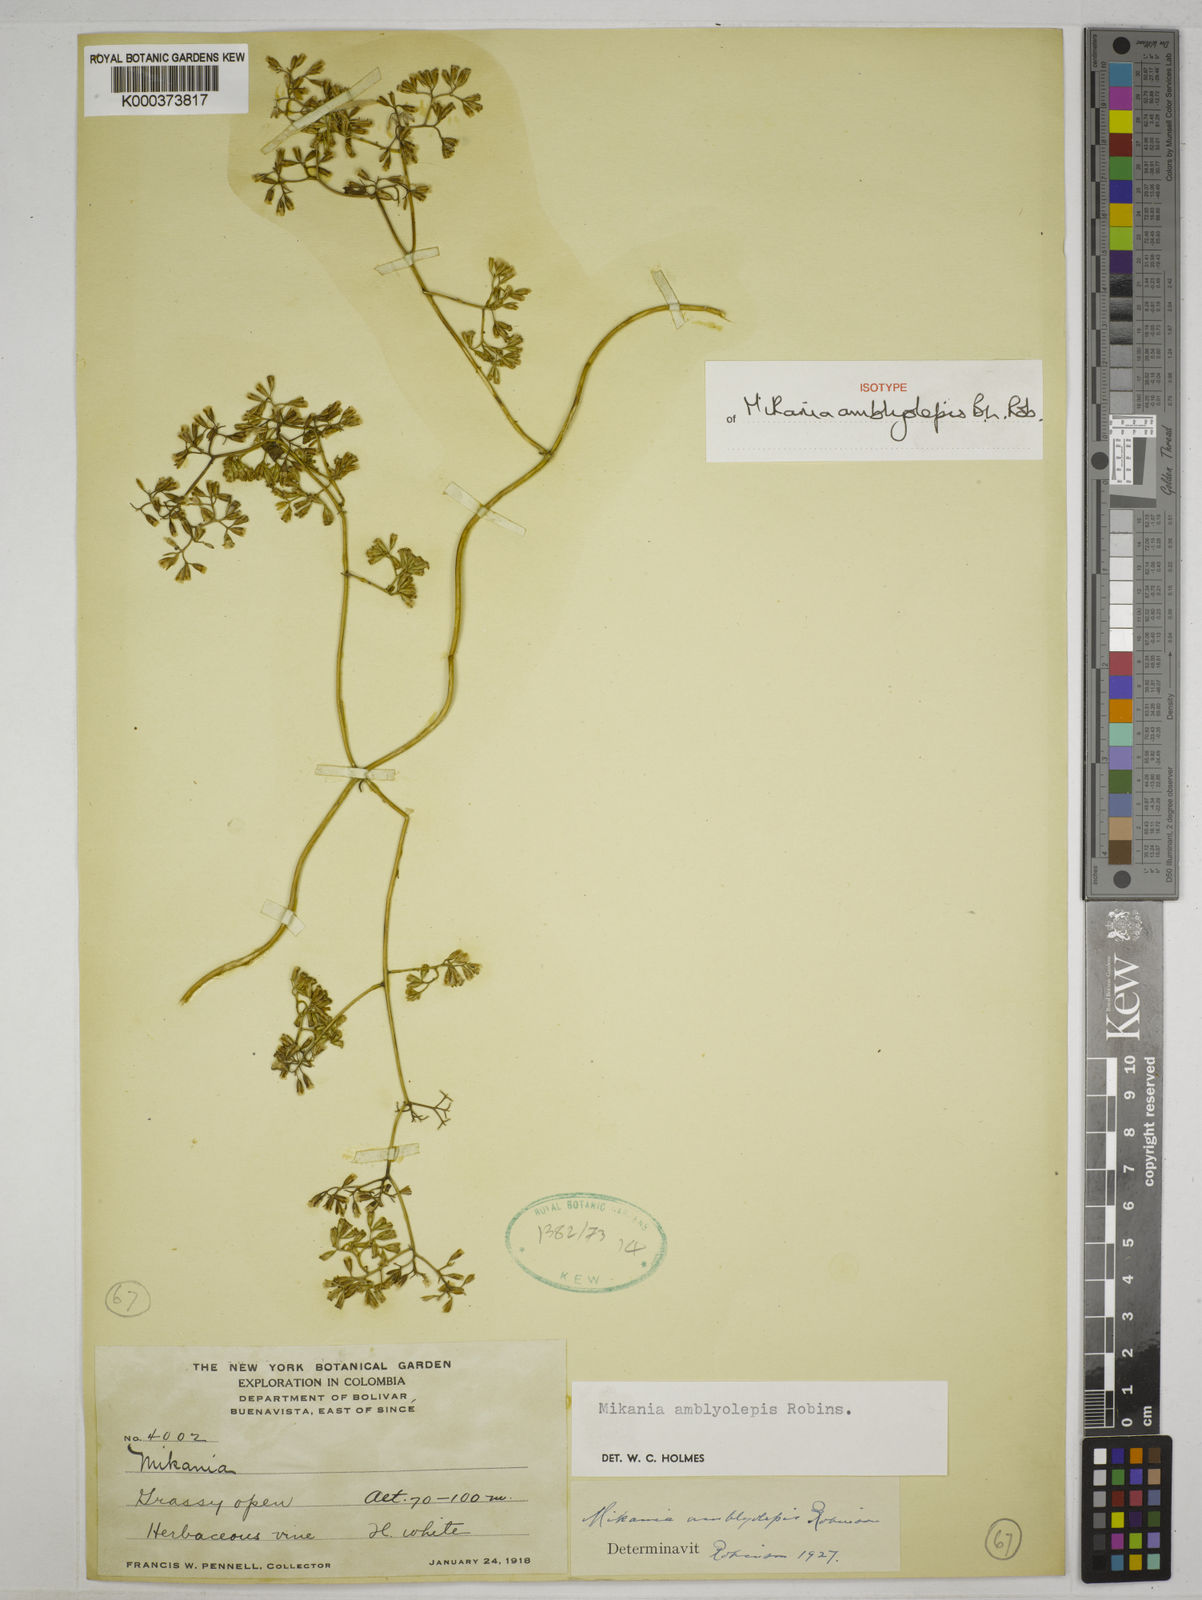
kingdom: Plantae
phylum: Tracheophyta
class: Magnoliopsida
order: Asterales
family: Asteraceae
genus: Mikania
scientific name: Mikania amblyolepis
